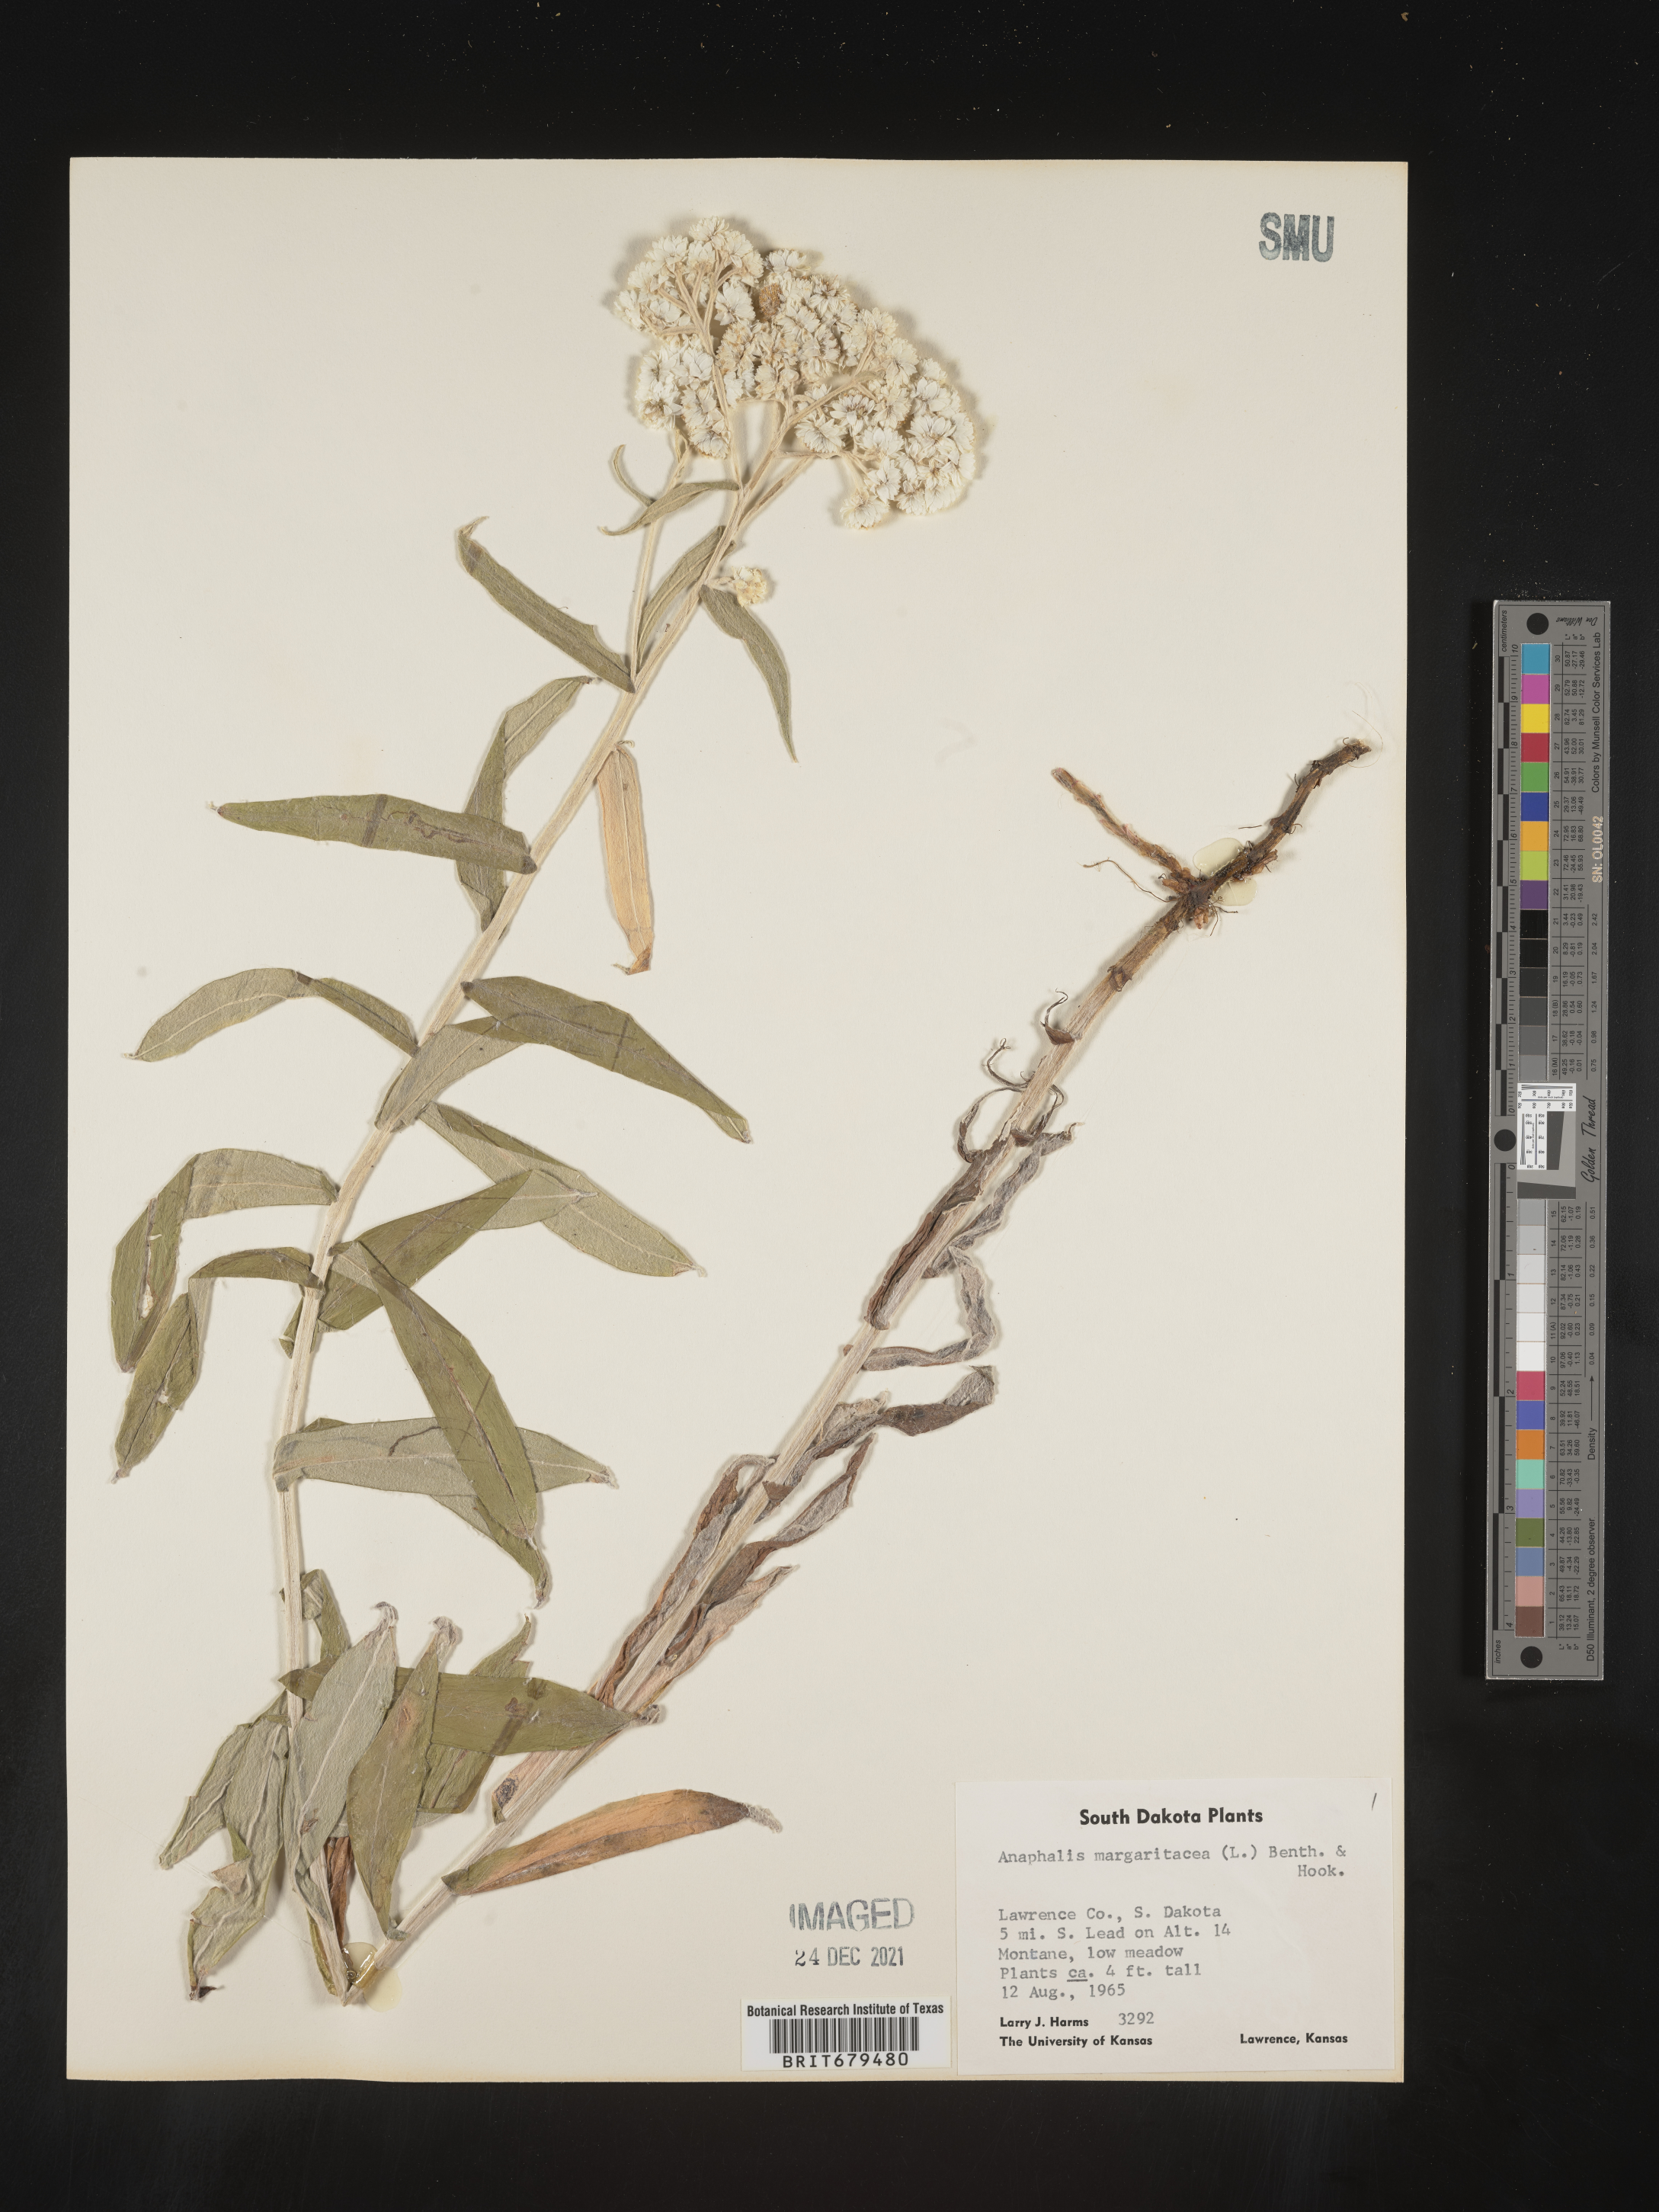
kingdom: Plantae
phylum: Tracheophyta
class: Magnoliopsida
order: Asterales
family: Asteraceae
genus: Anaphalis
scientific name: Anaphalis margaritacea
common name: Pearly everlasting
